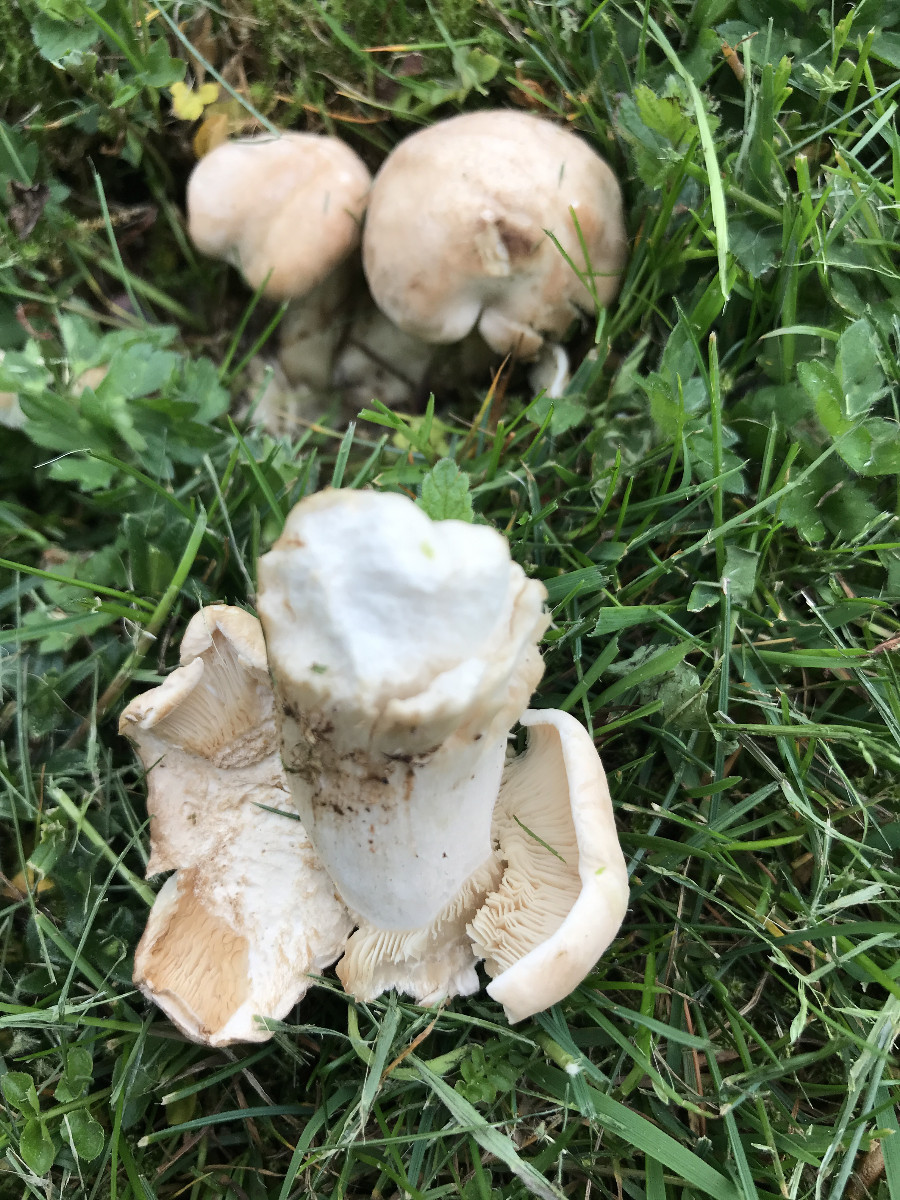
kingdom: Fungi
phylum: Basidiomycota
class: Agaricomycetes
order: Agaricales
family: Lyophyllaceae
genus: Calocybe
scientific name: Calocybe gambosa
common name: vårmusseron
